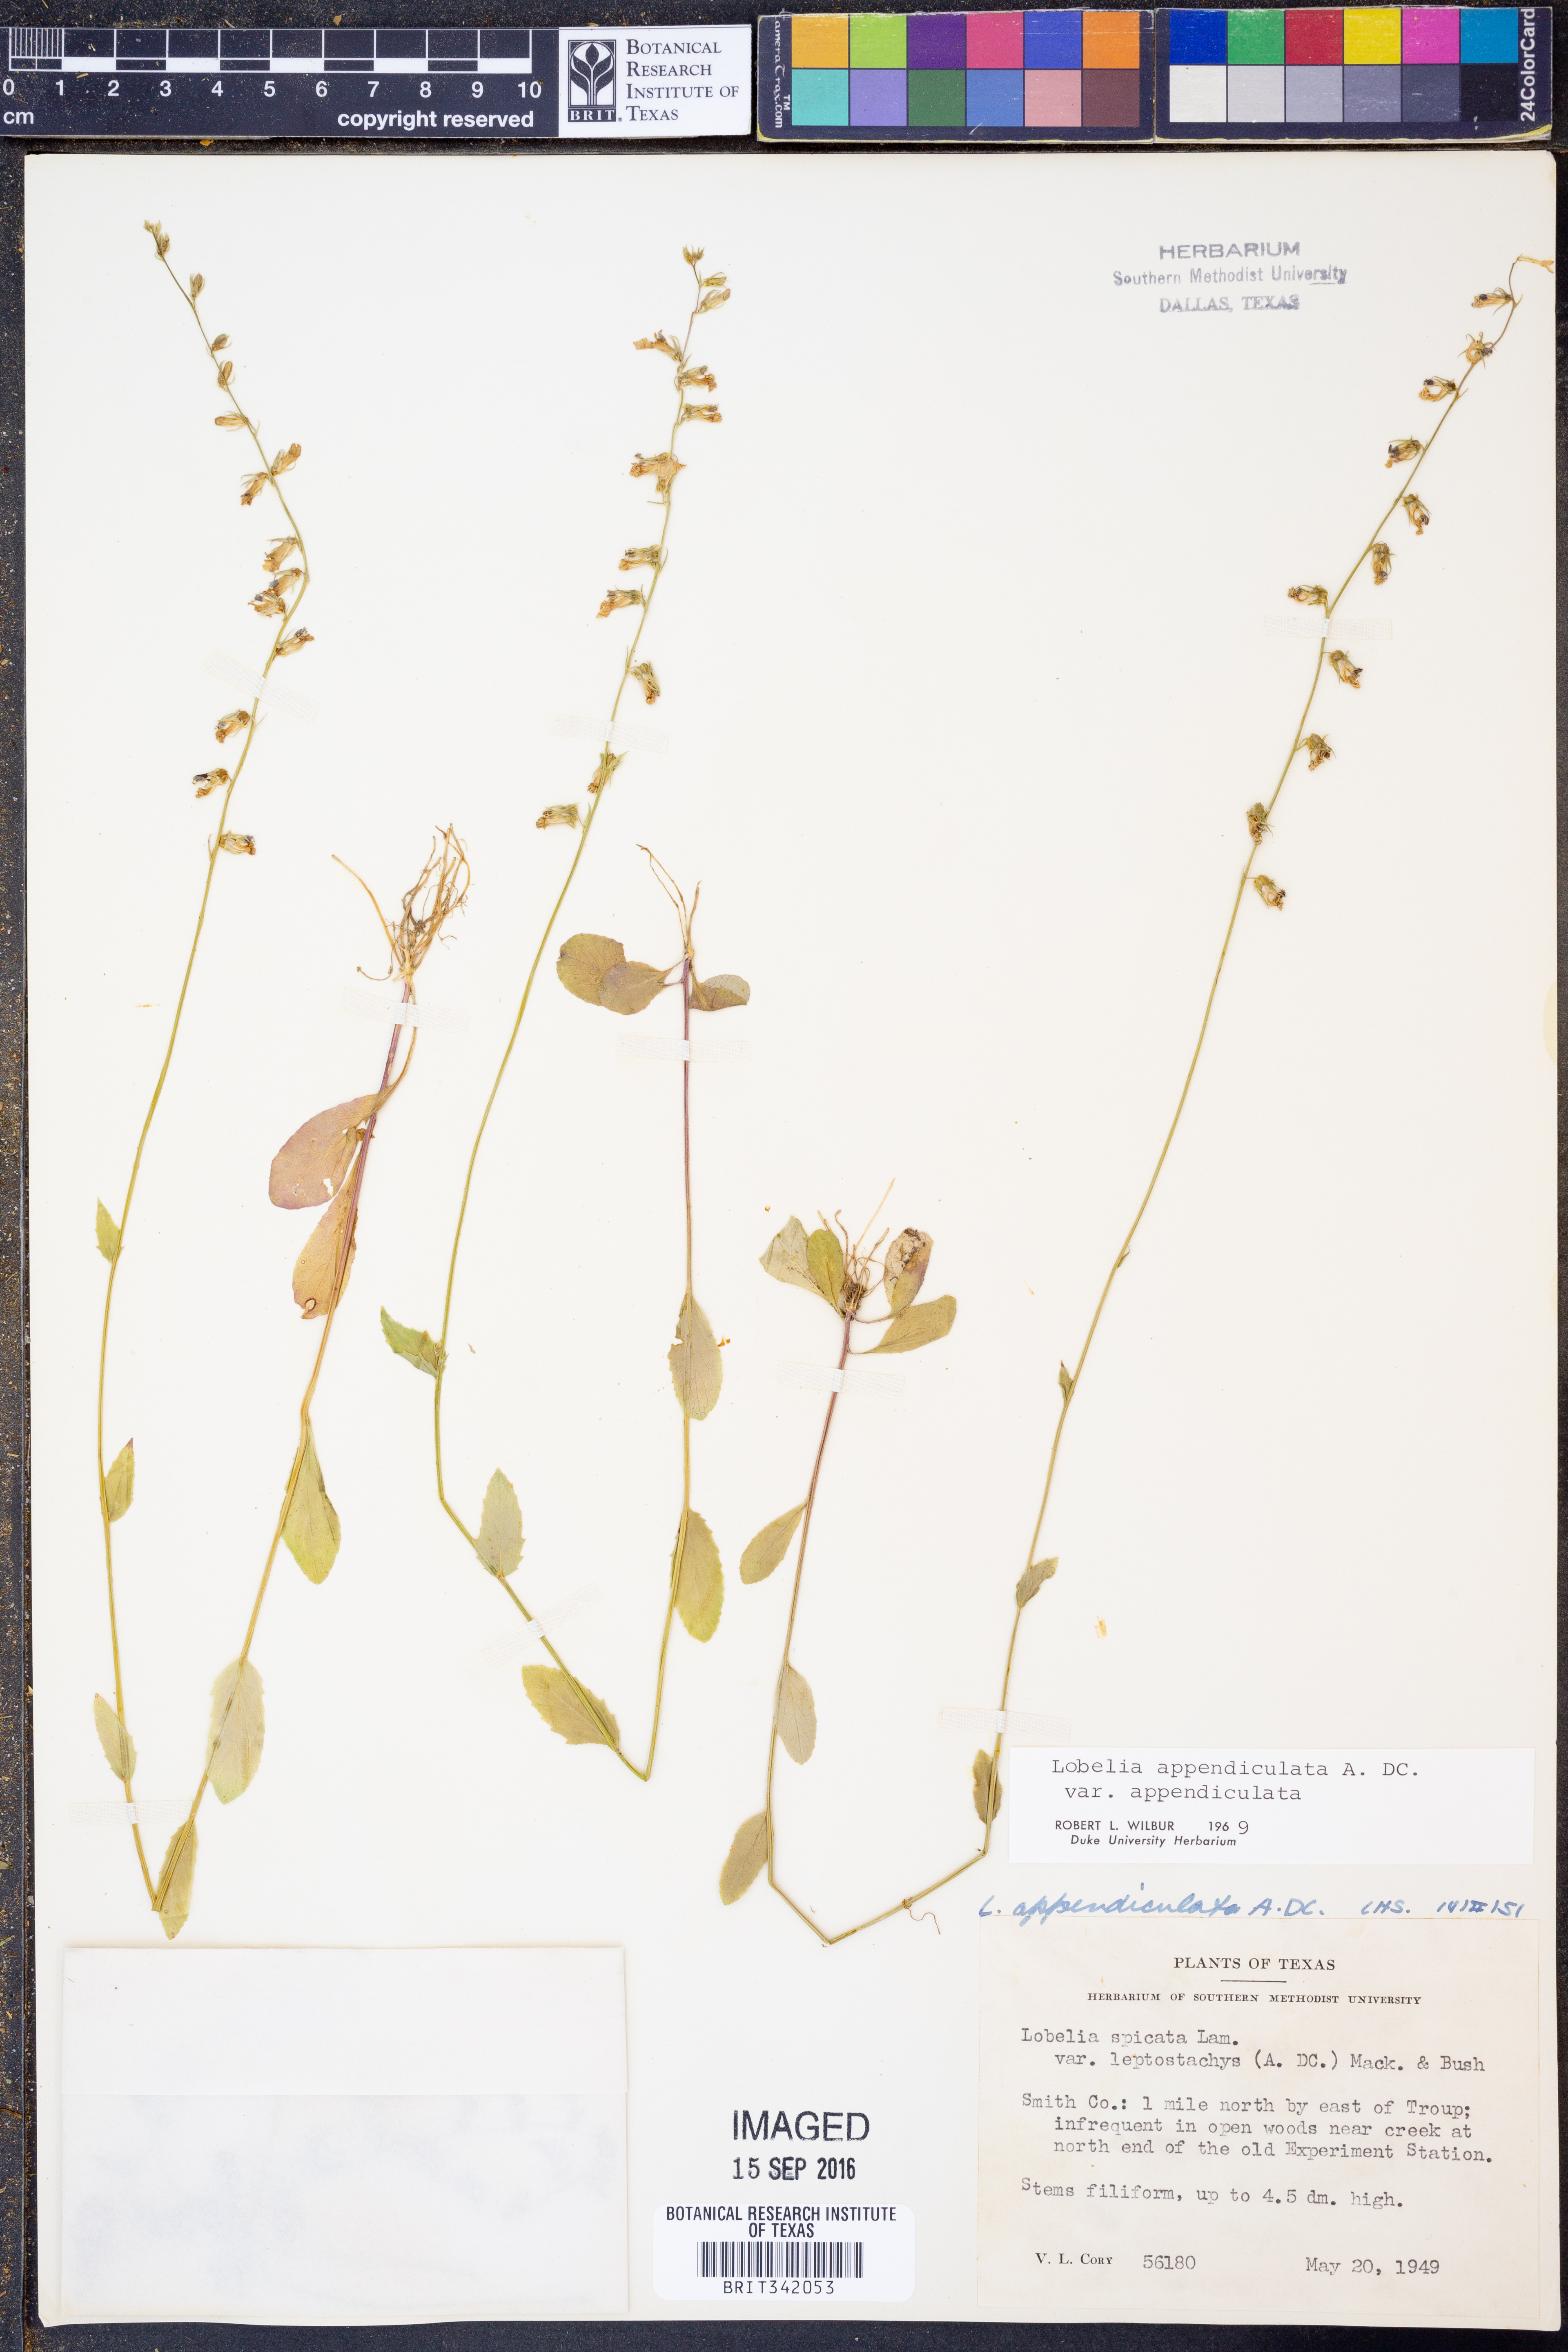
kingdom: Plantae
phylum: Tracheophyta
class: Magnoliopsida
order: Asterales
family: Campanulaceae
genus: Lobelia
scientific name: Lobelia appendiculata
